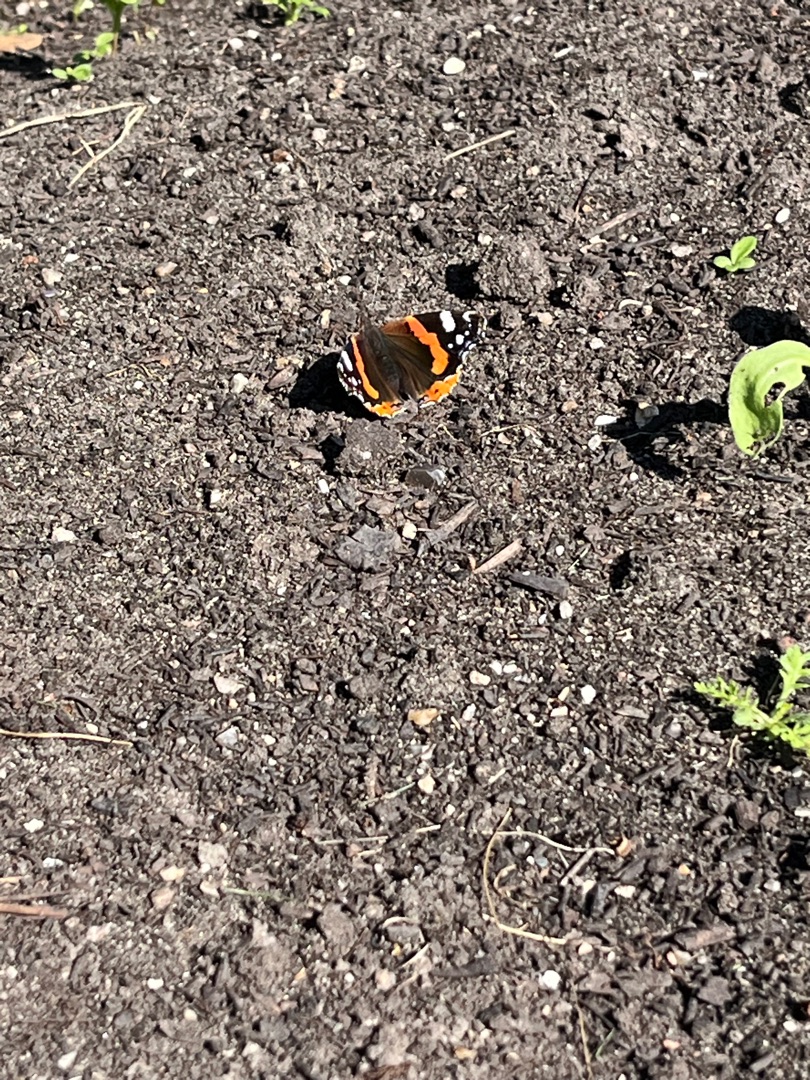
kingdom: Animalia
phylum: Arthropoda
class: Insecta
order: Lepidoptera
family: Nymphalidae
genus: Vanessa
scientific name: Vanessa atalanta
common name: Admiral
